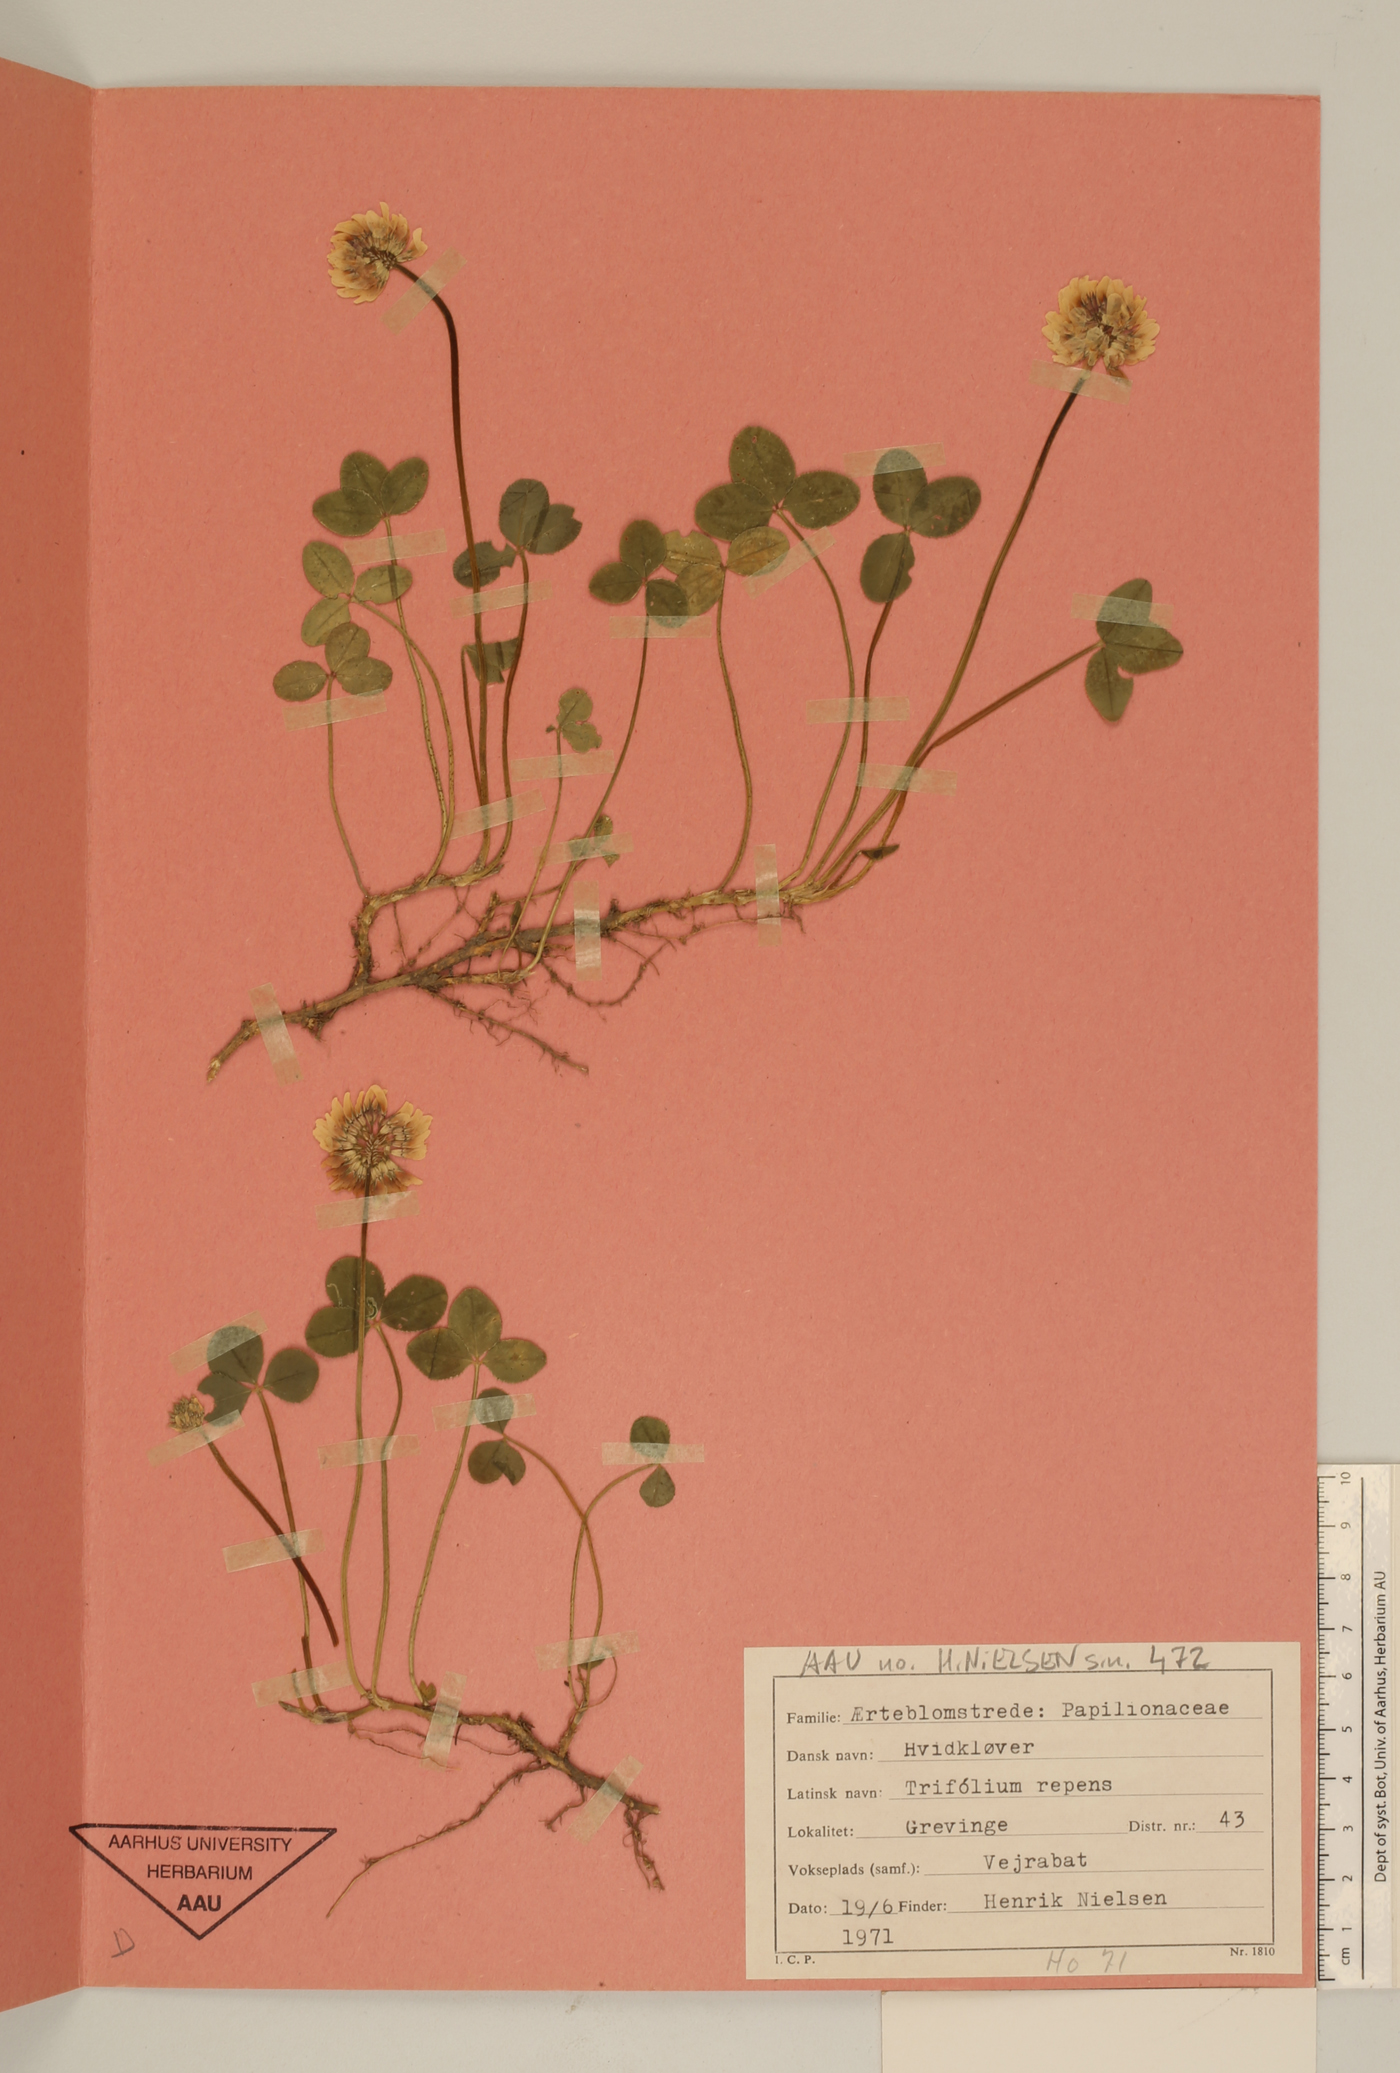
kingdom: Plantae
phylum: Tracheophyta
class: Magnoliopsida
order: Fabales
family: Fabaceae
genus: Trifolium
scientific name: Trifolium repens
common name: White clover
